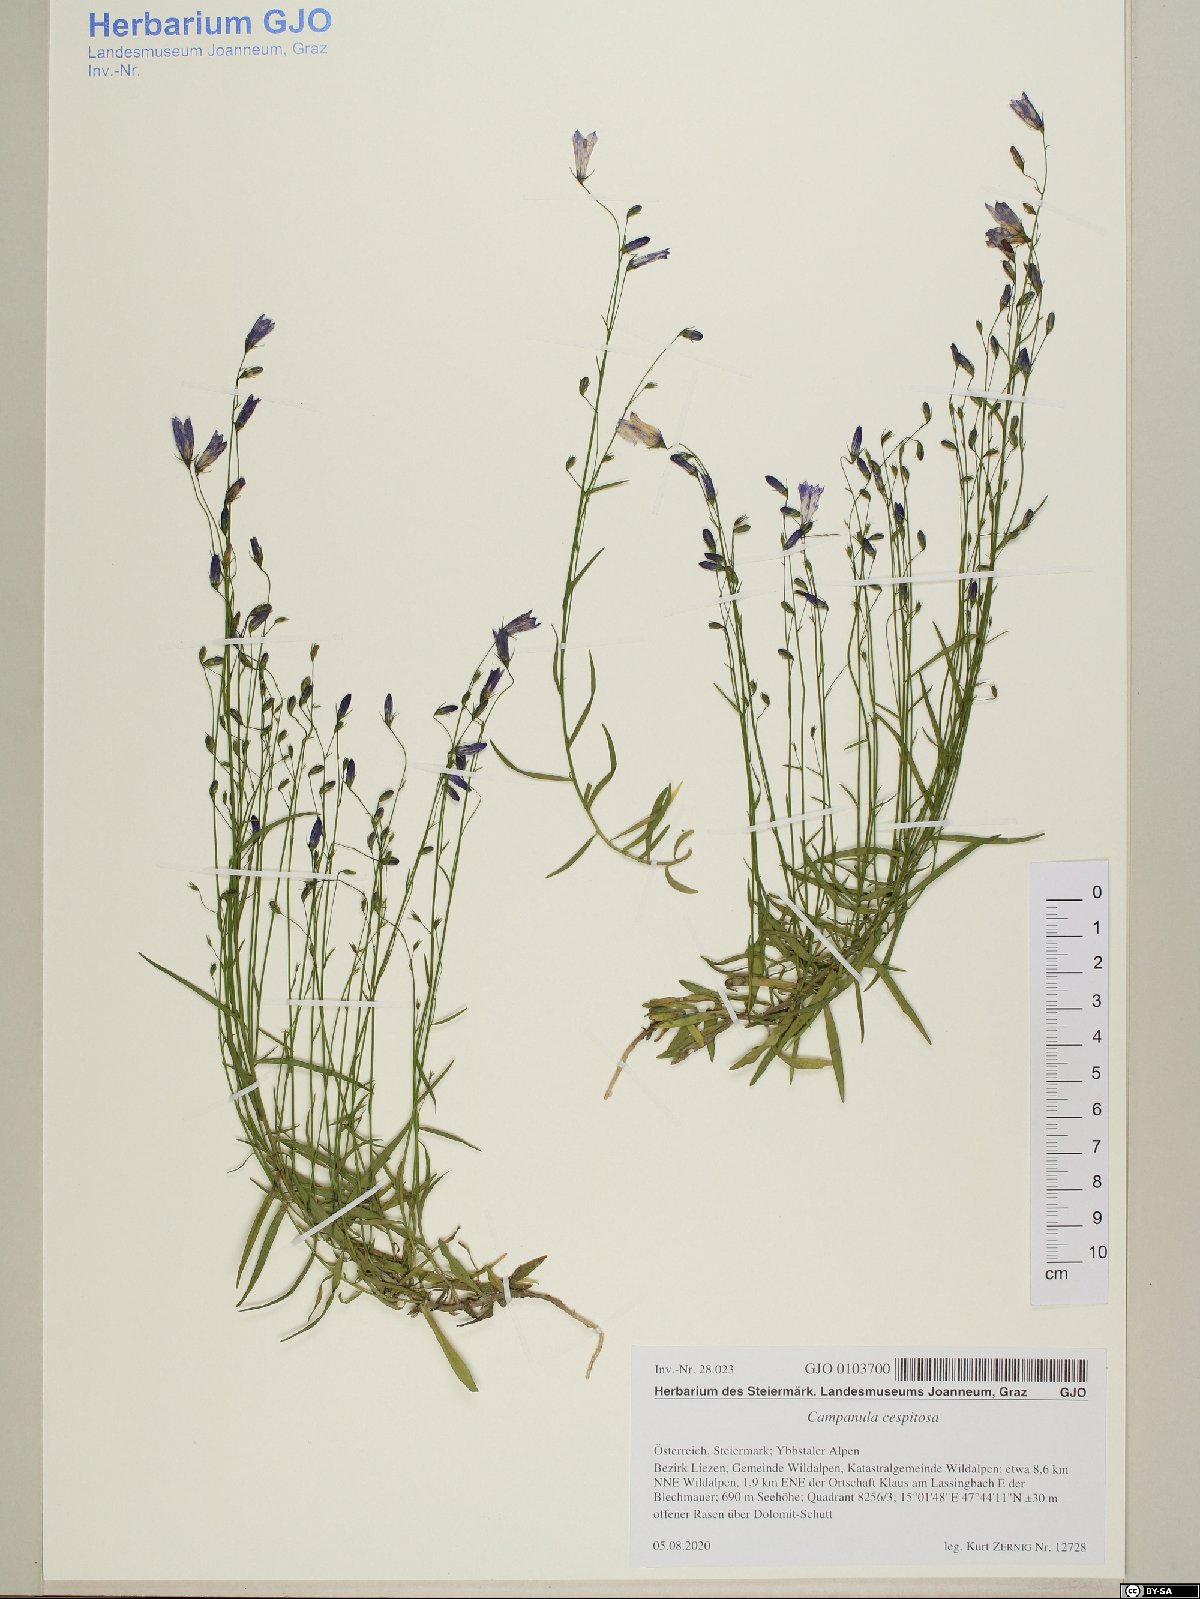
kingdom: Plantae
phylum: Tracheophyta
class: Magnoliopsida
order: Asterales
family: Campanulaceae
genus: Campanula
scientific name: Campanula cespitosa
